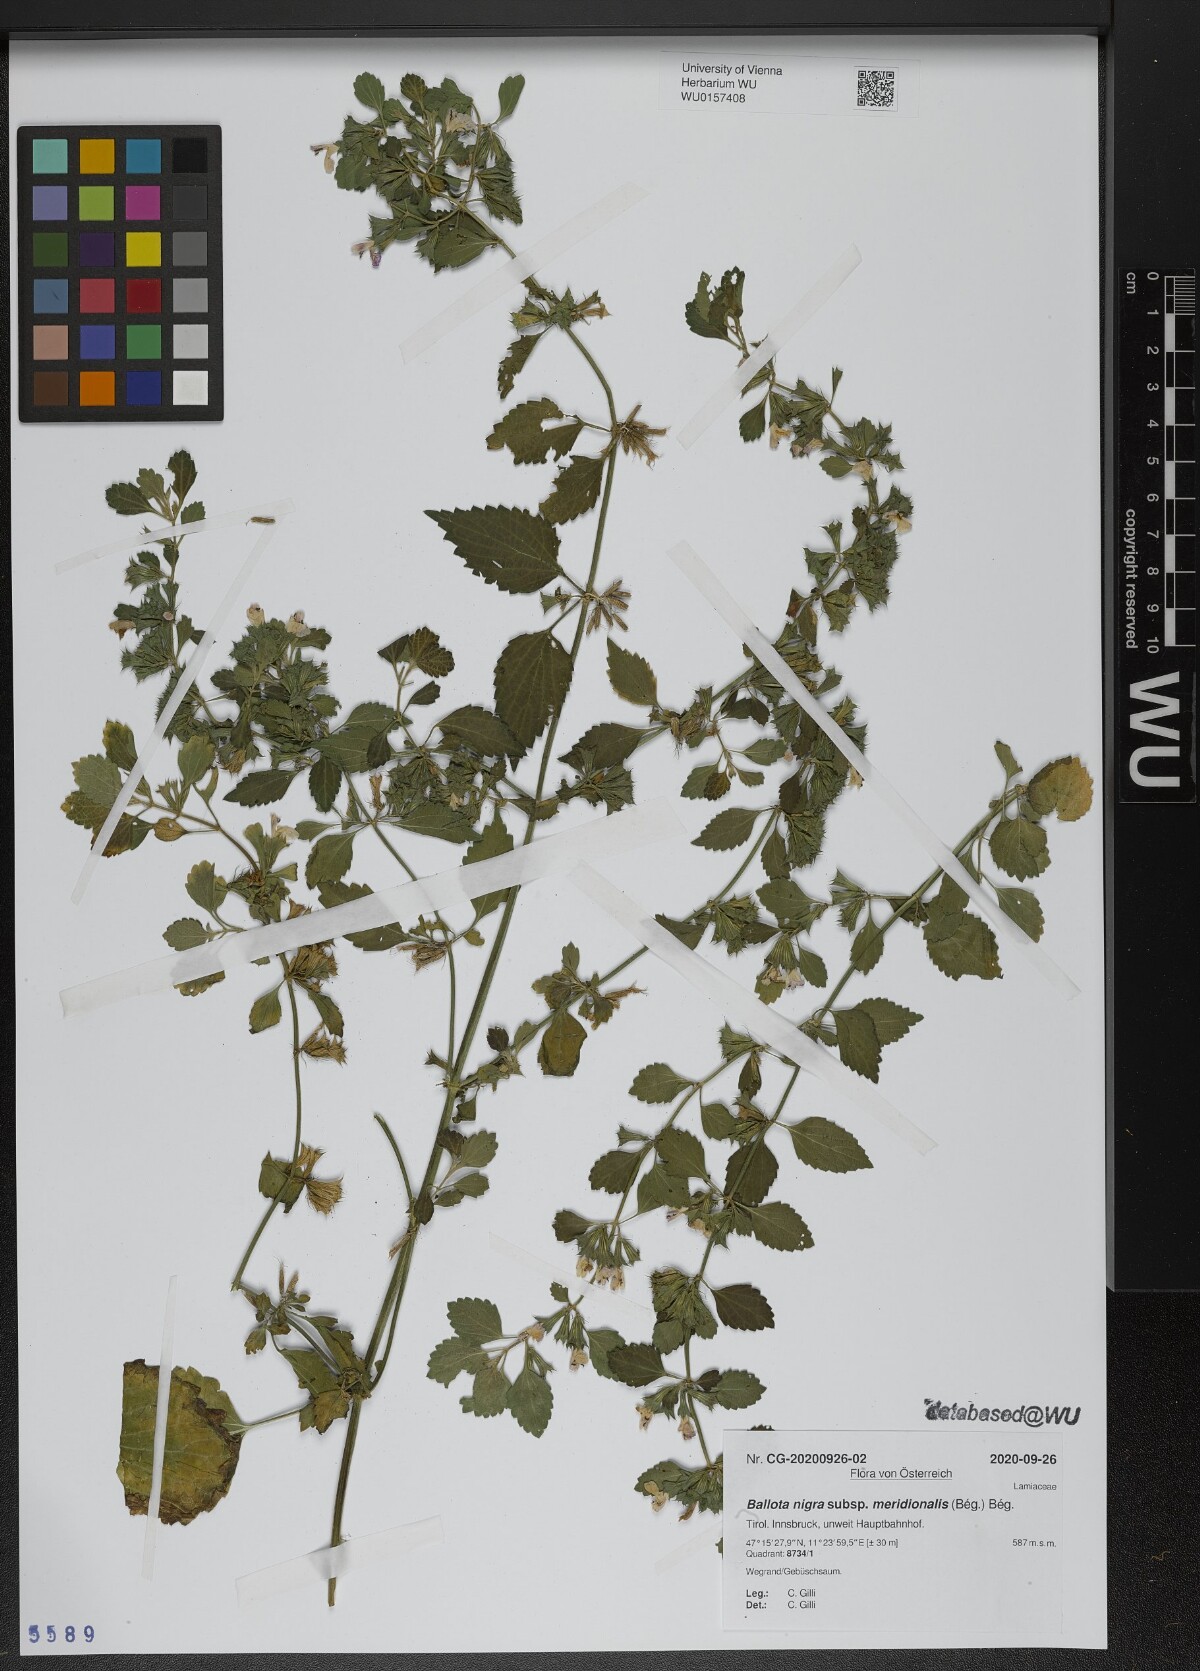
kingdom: Plantae
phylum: Tracheophyta
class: Magnoliopsida
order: Lamiales
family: Lamiaceae
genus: Ballota
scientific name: Ballota nigra
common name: Black horehound
